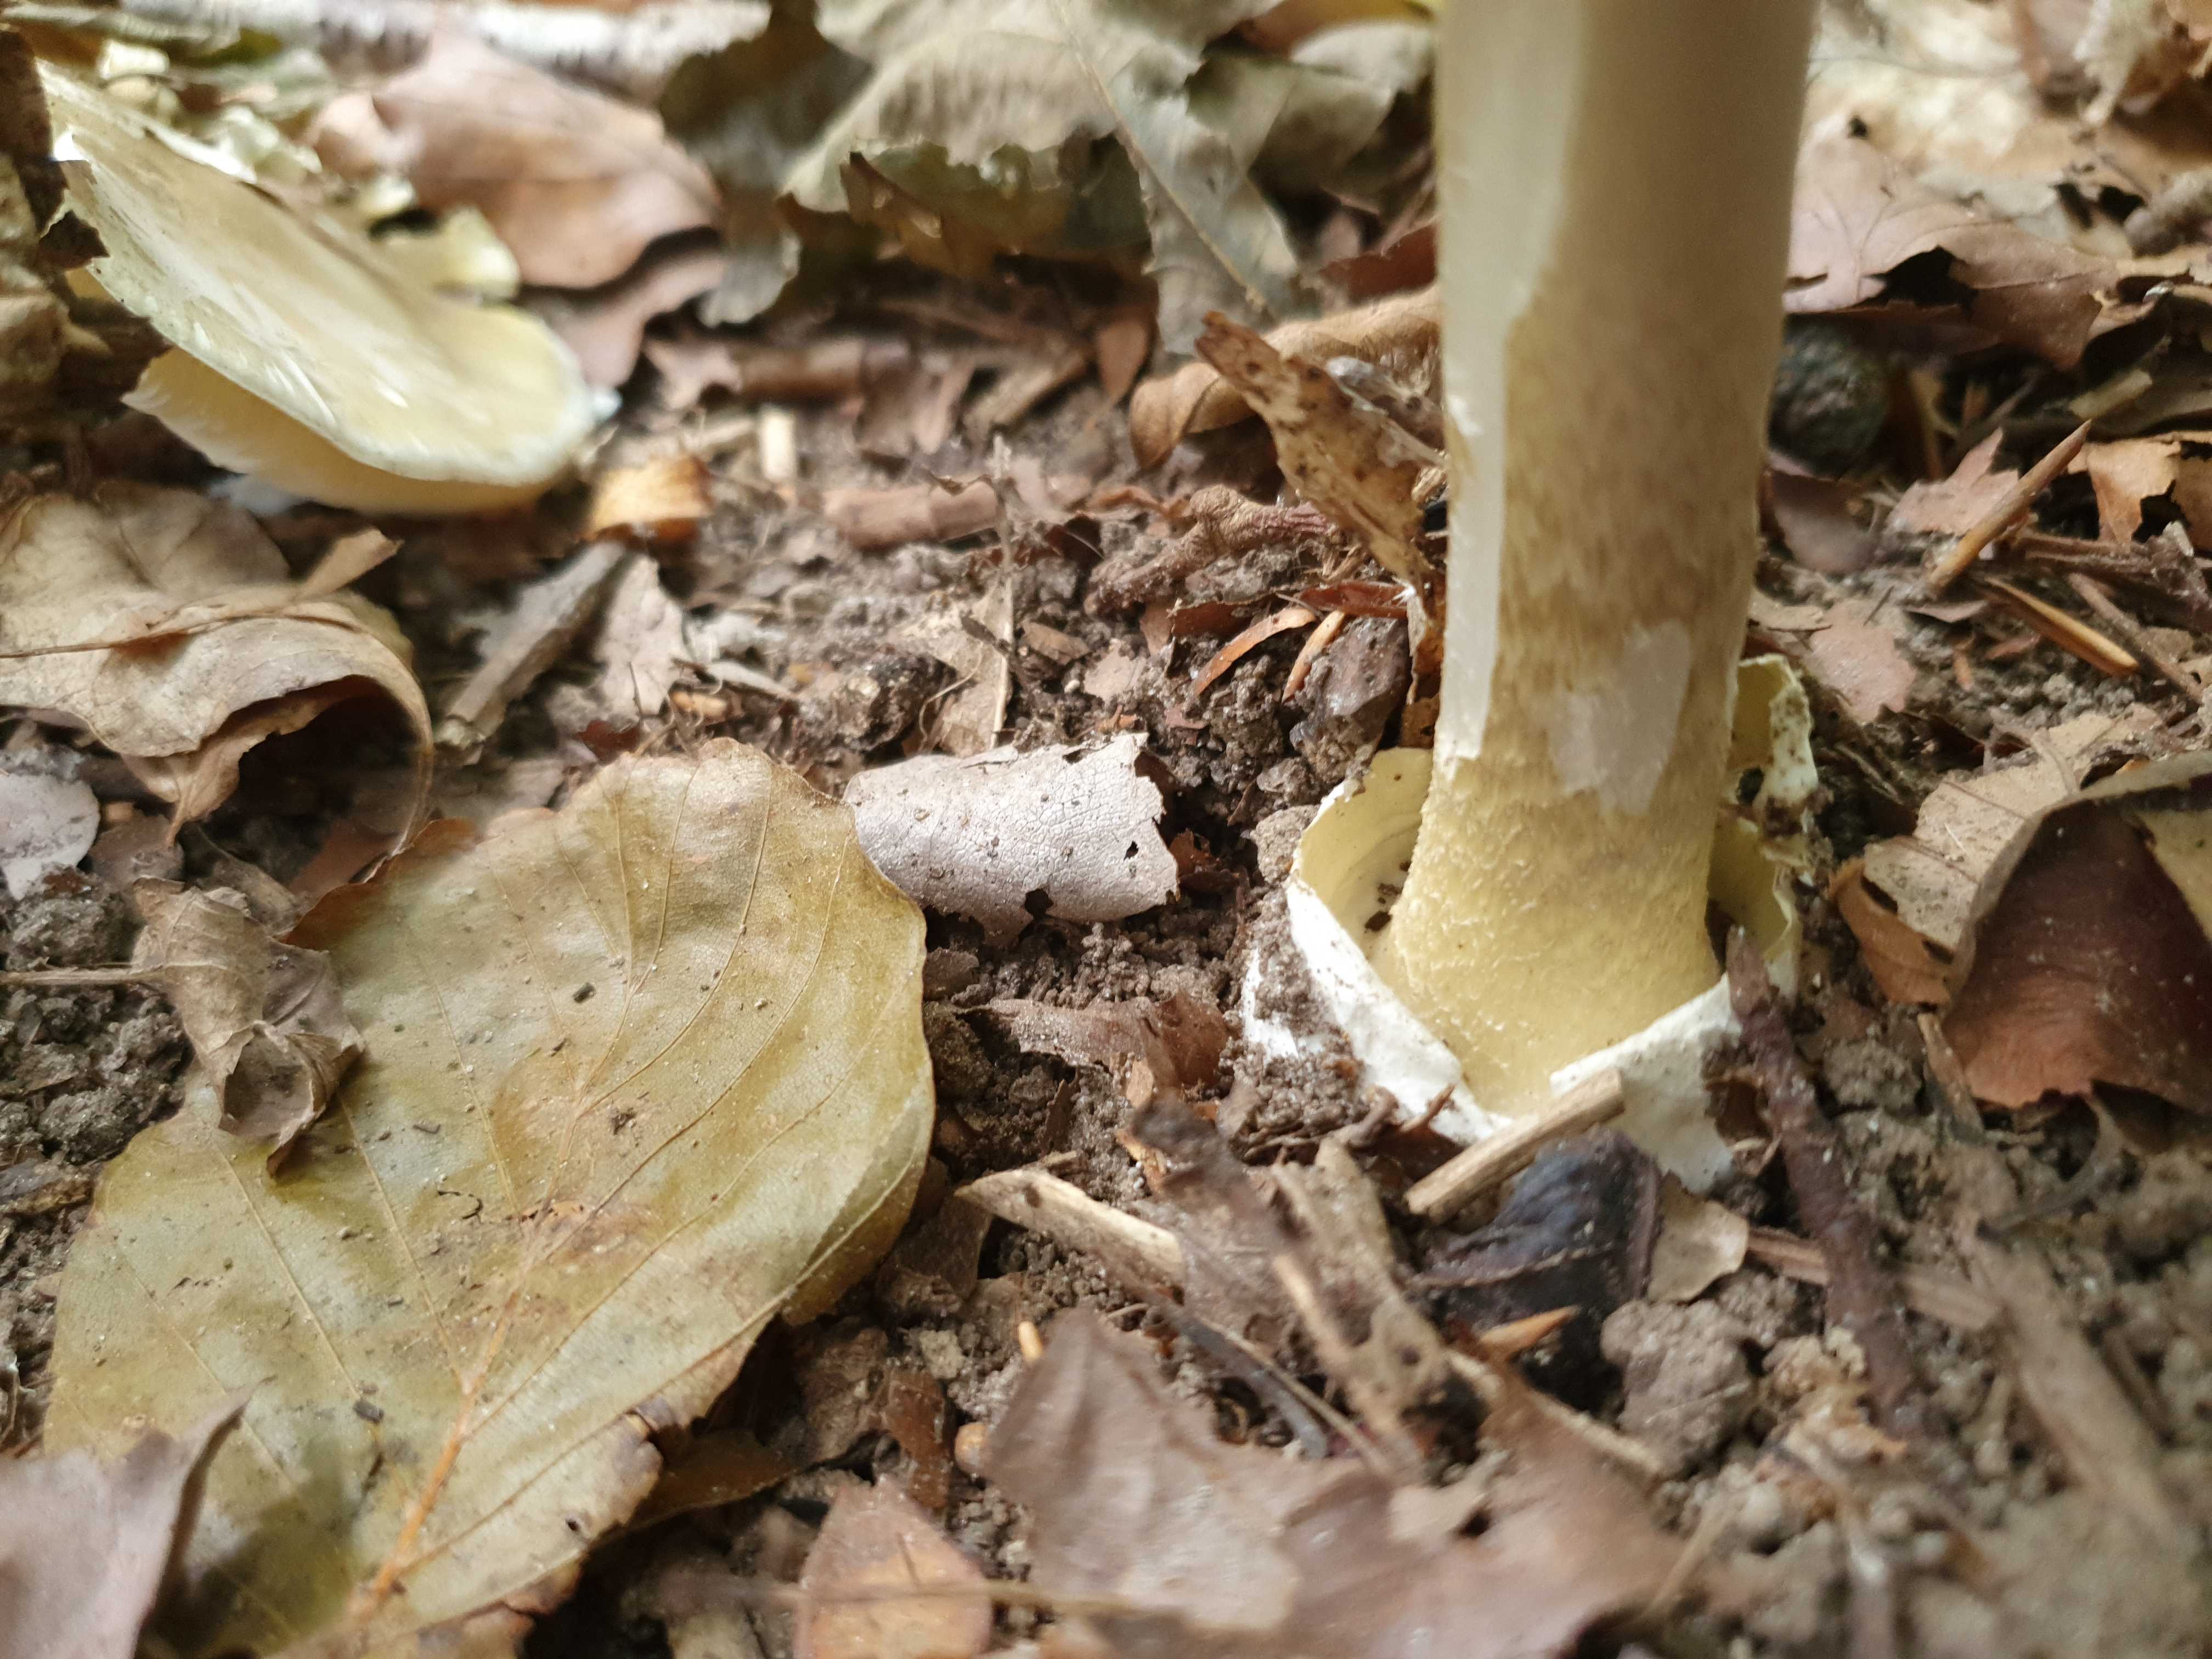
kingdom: Fungi
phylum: Basidiomycota
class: Agaricomycetes
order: Agaricales
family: Amanitaceae
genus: Amanita
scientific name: Amanita phalloides
